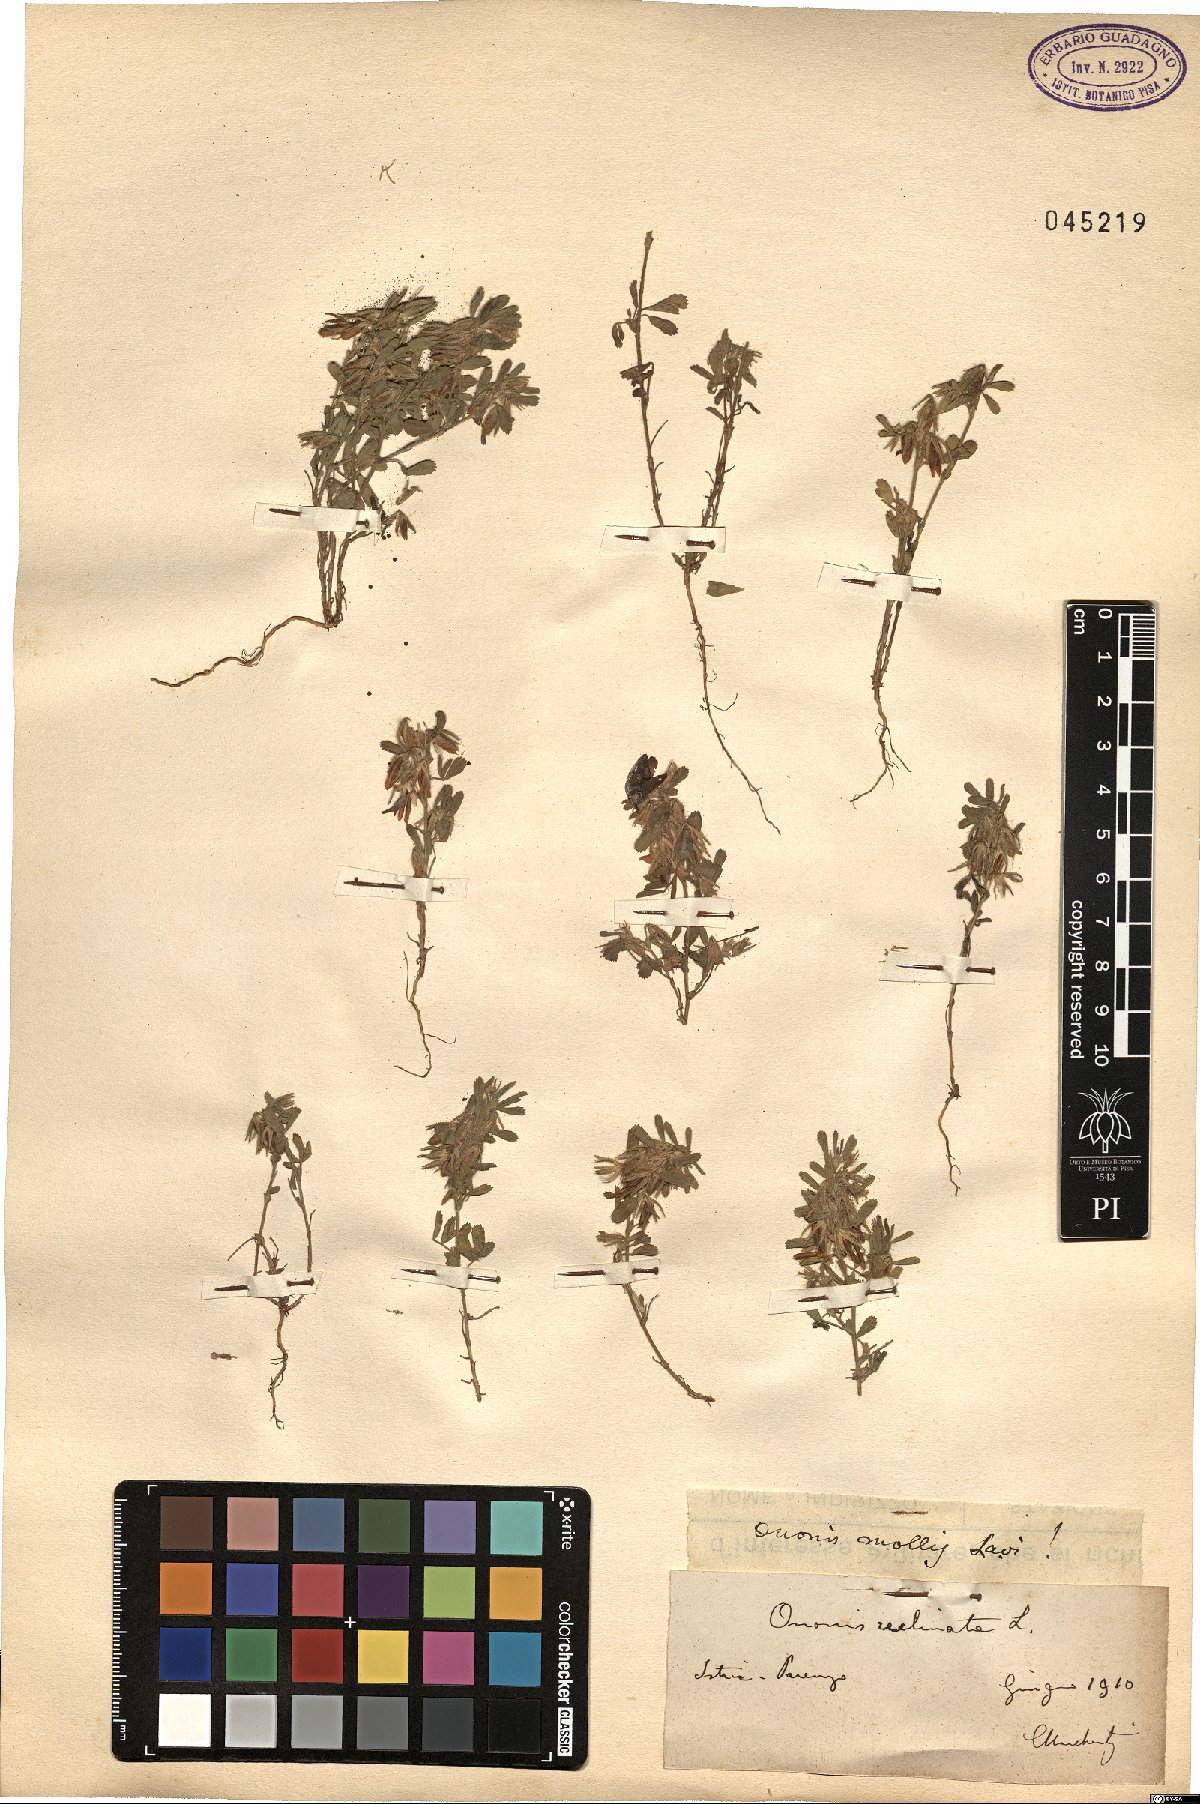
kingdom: Plantae
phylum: Tracheophyta
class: Magnoliopsida
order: Fabales
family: Fabaceae
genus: Ononis
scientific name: Ononis reclinata
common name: Small restharrow
